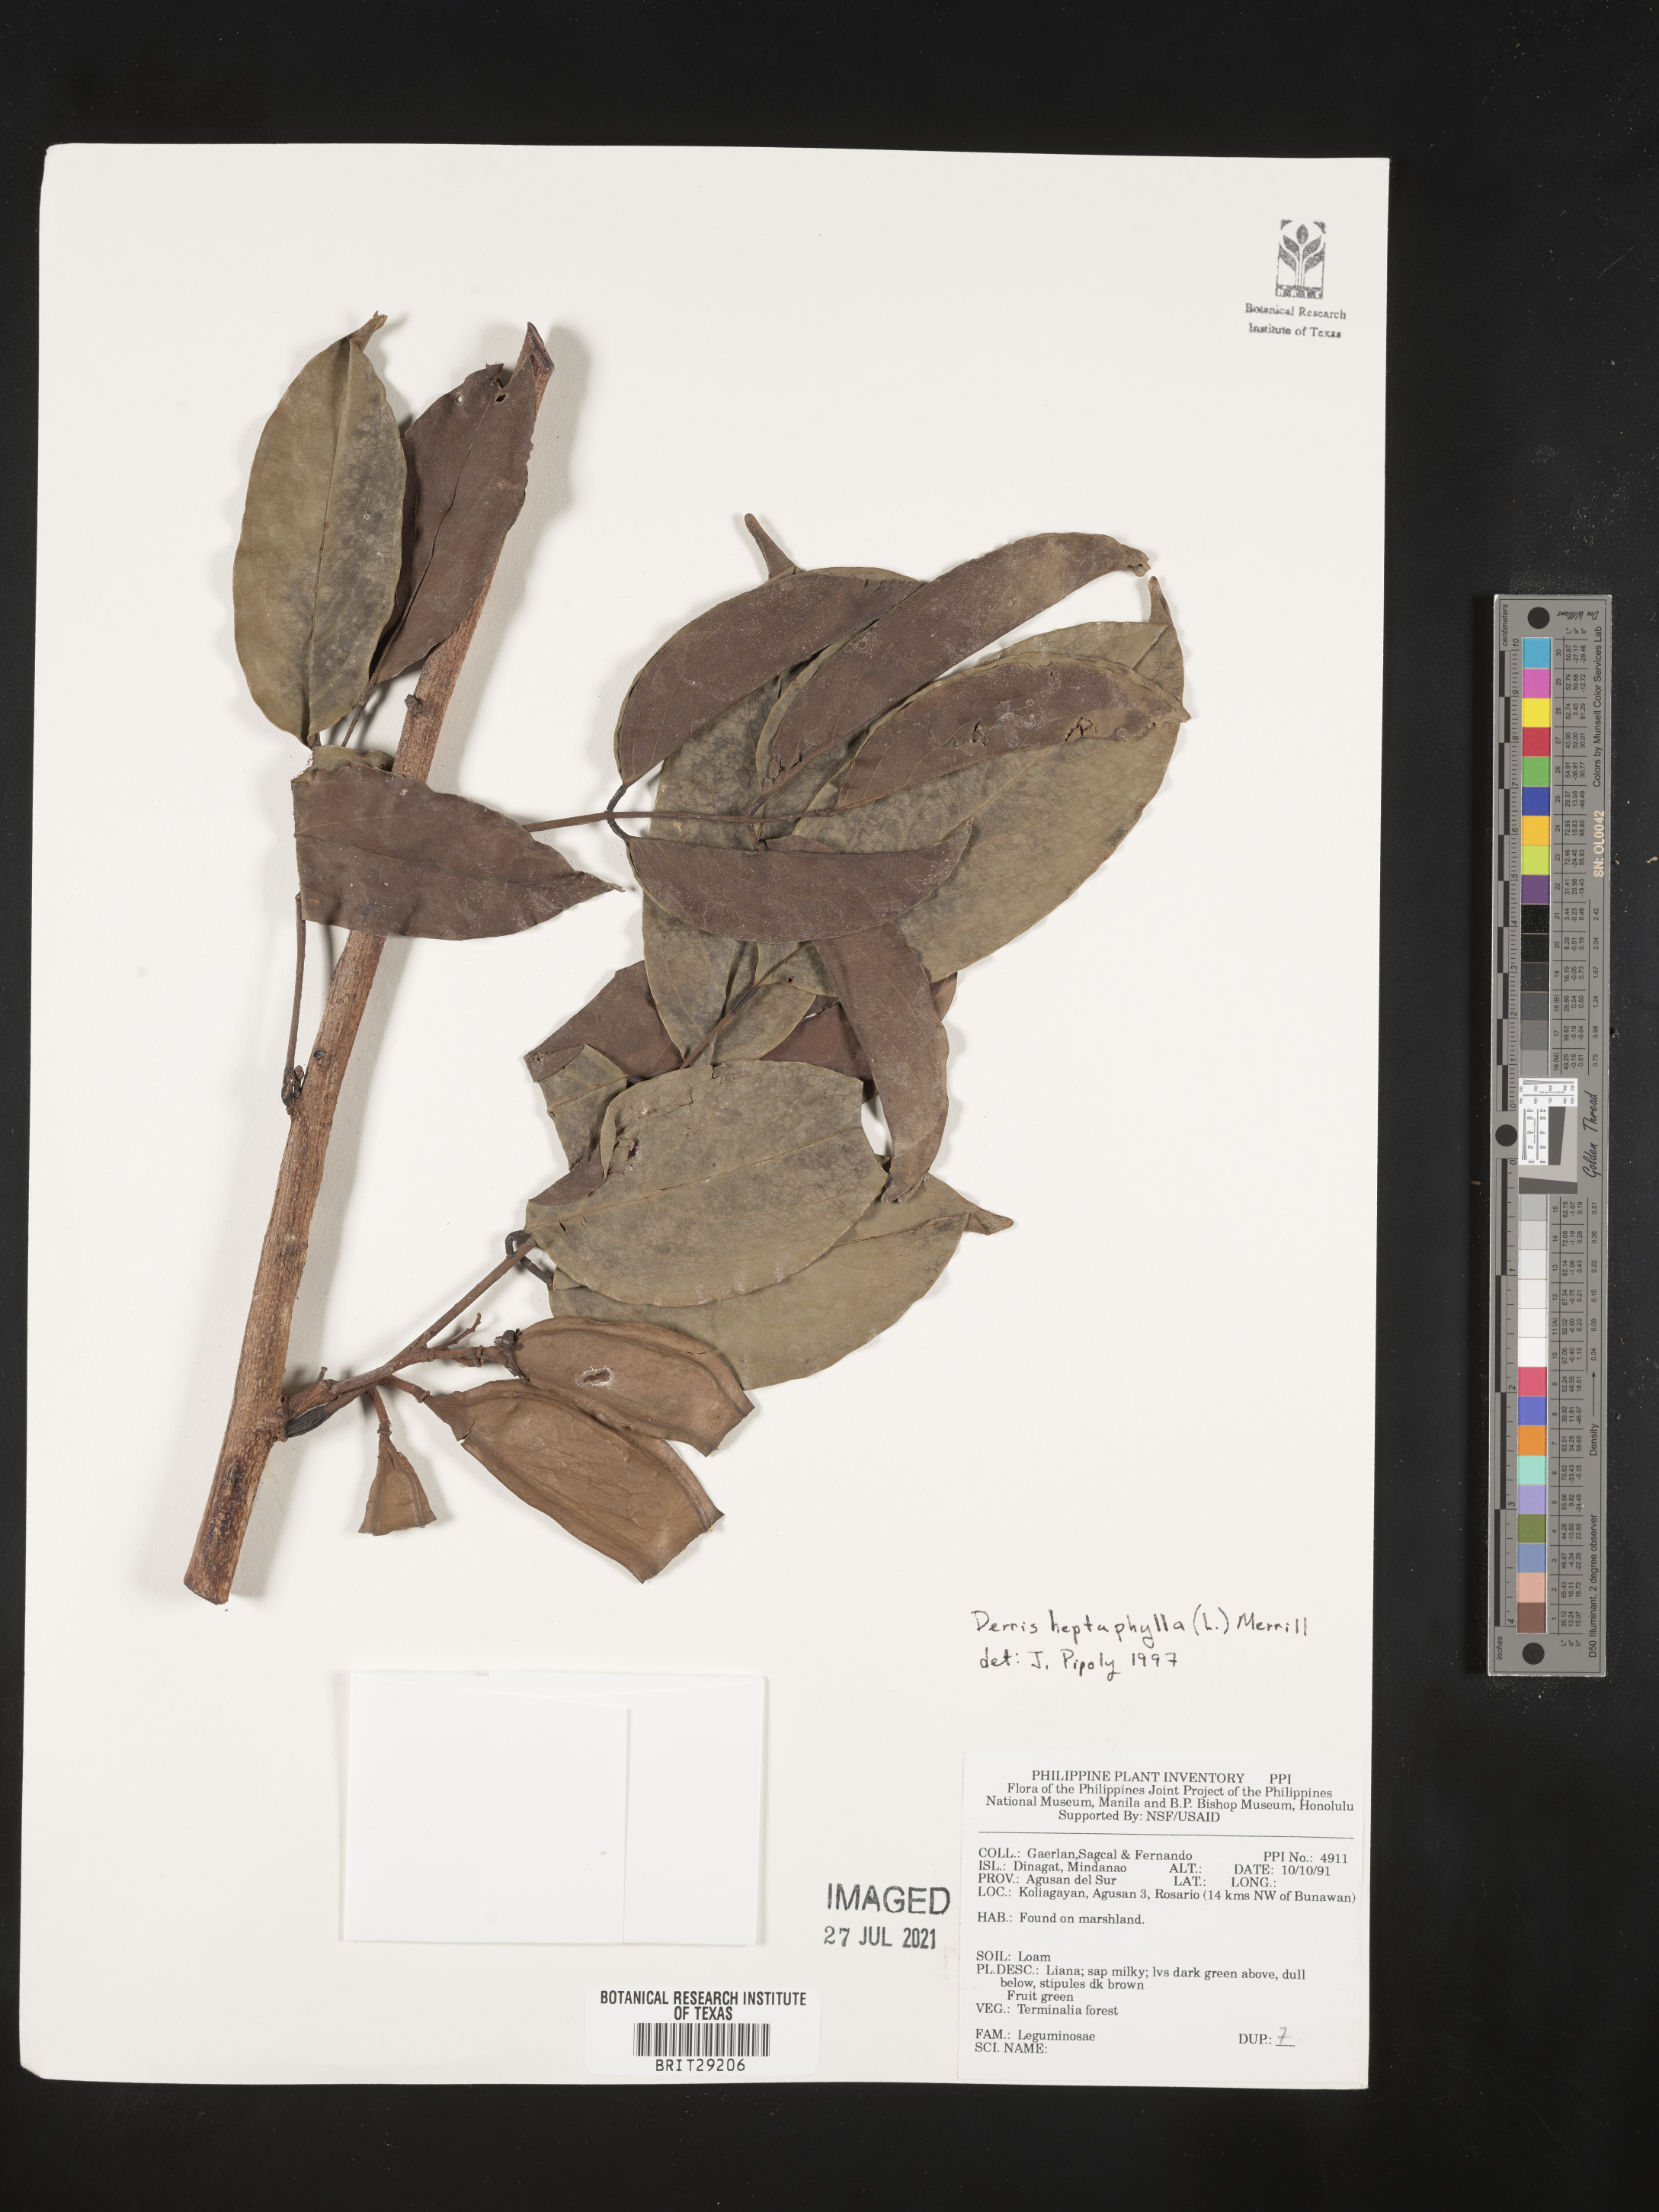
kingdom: Plantae
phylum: Tracheophyta
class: Magnoliopsida
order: Fabales
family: Fabaceae
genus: Aganope
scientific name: Aganope heptaphylla
